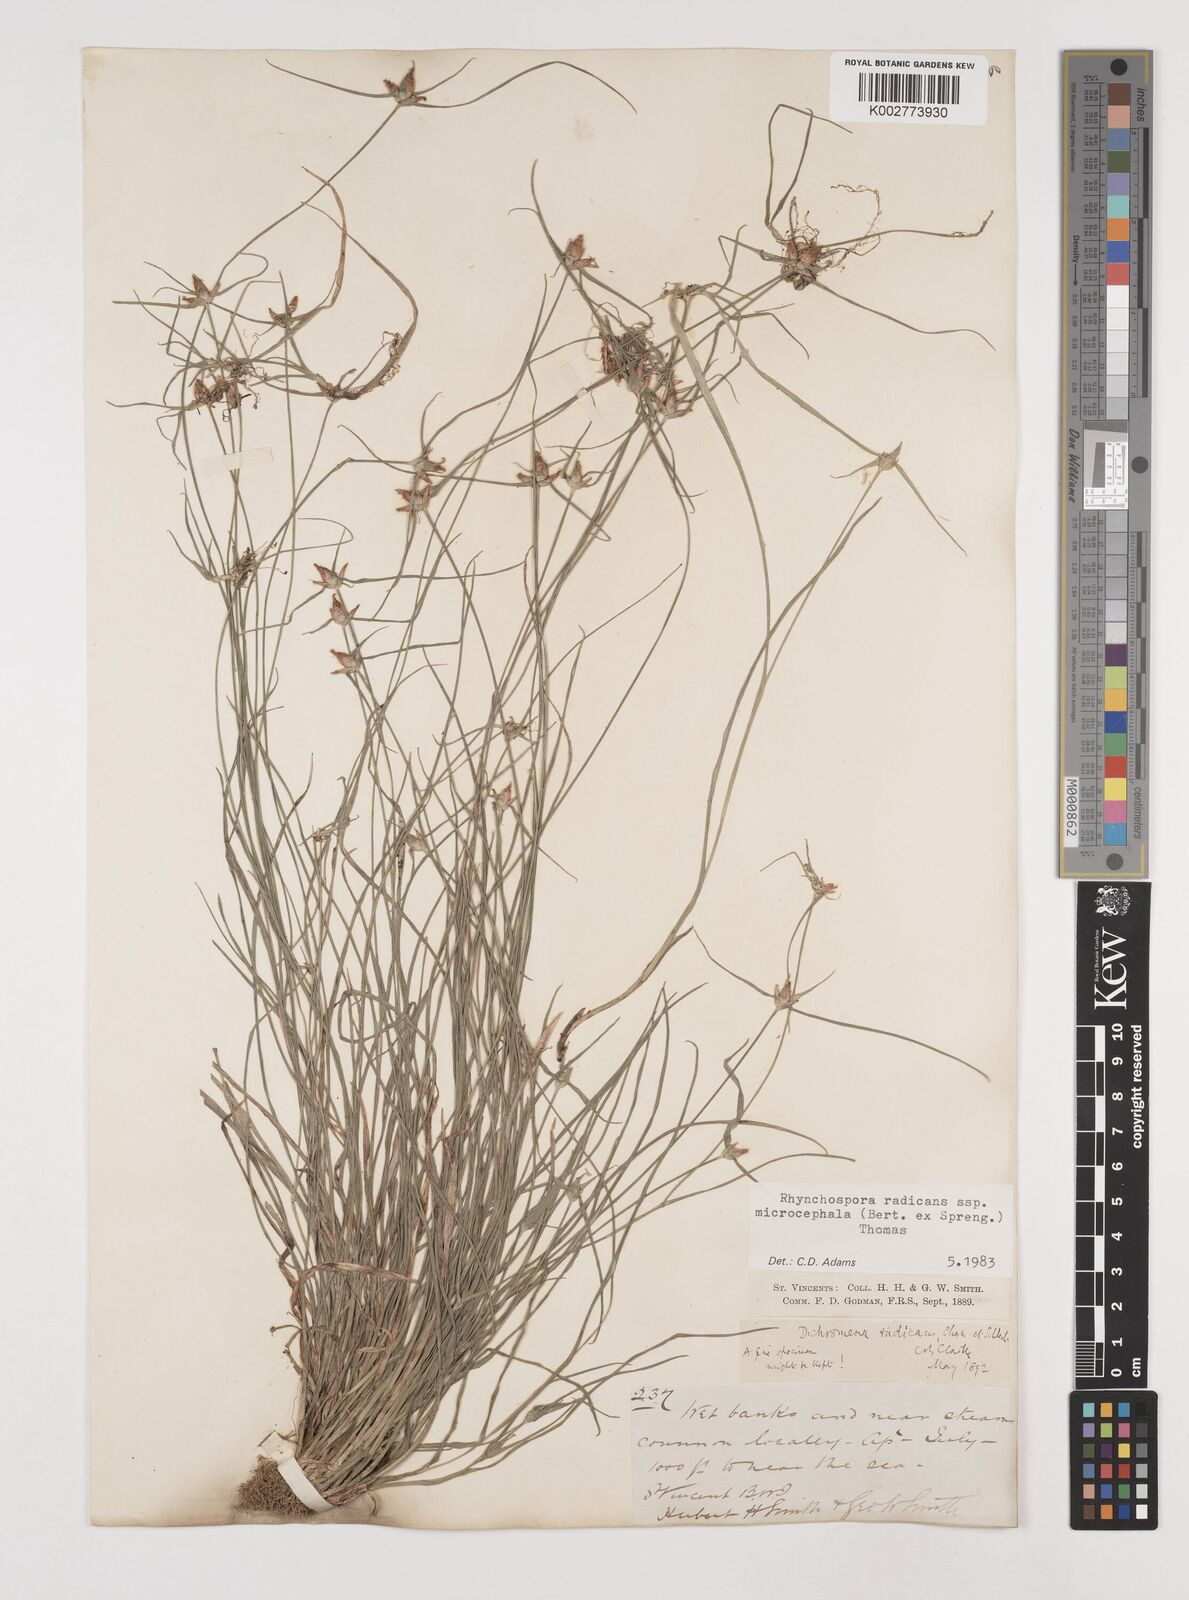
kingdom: Plantae
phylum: Tracheophyta
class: Liliopsida
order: Poales
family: Cyperaceae
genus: Rhynchospora
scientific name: Rhynchospora radicans
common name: Tropical whitetop
